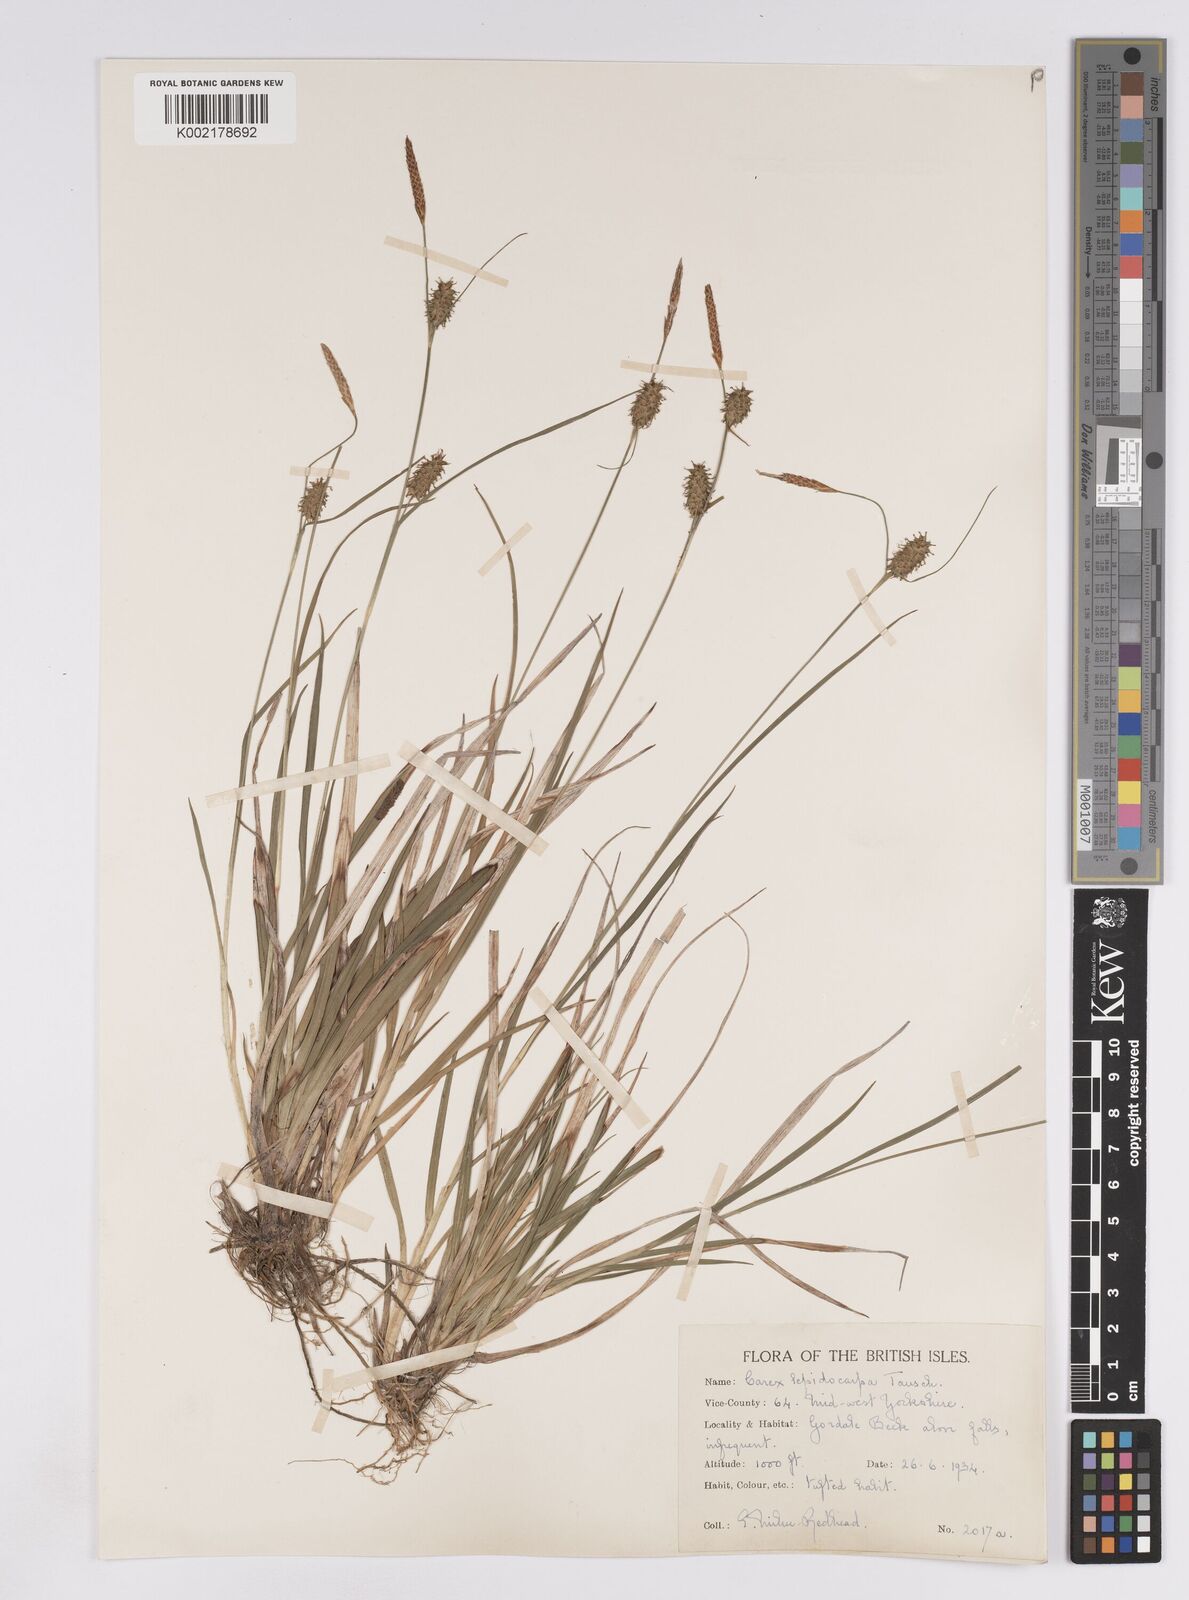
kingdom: Plantae
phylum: Tracheophyta
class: Liliopsida
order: Poales
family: Cyperaceae
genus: Carex
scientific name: Carex lepidocarpa
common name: Long-stalked yellow-sedge
